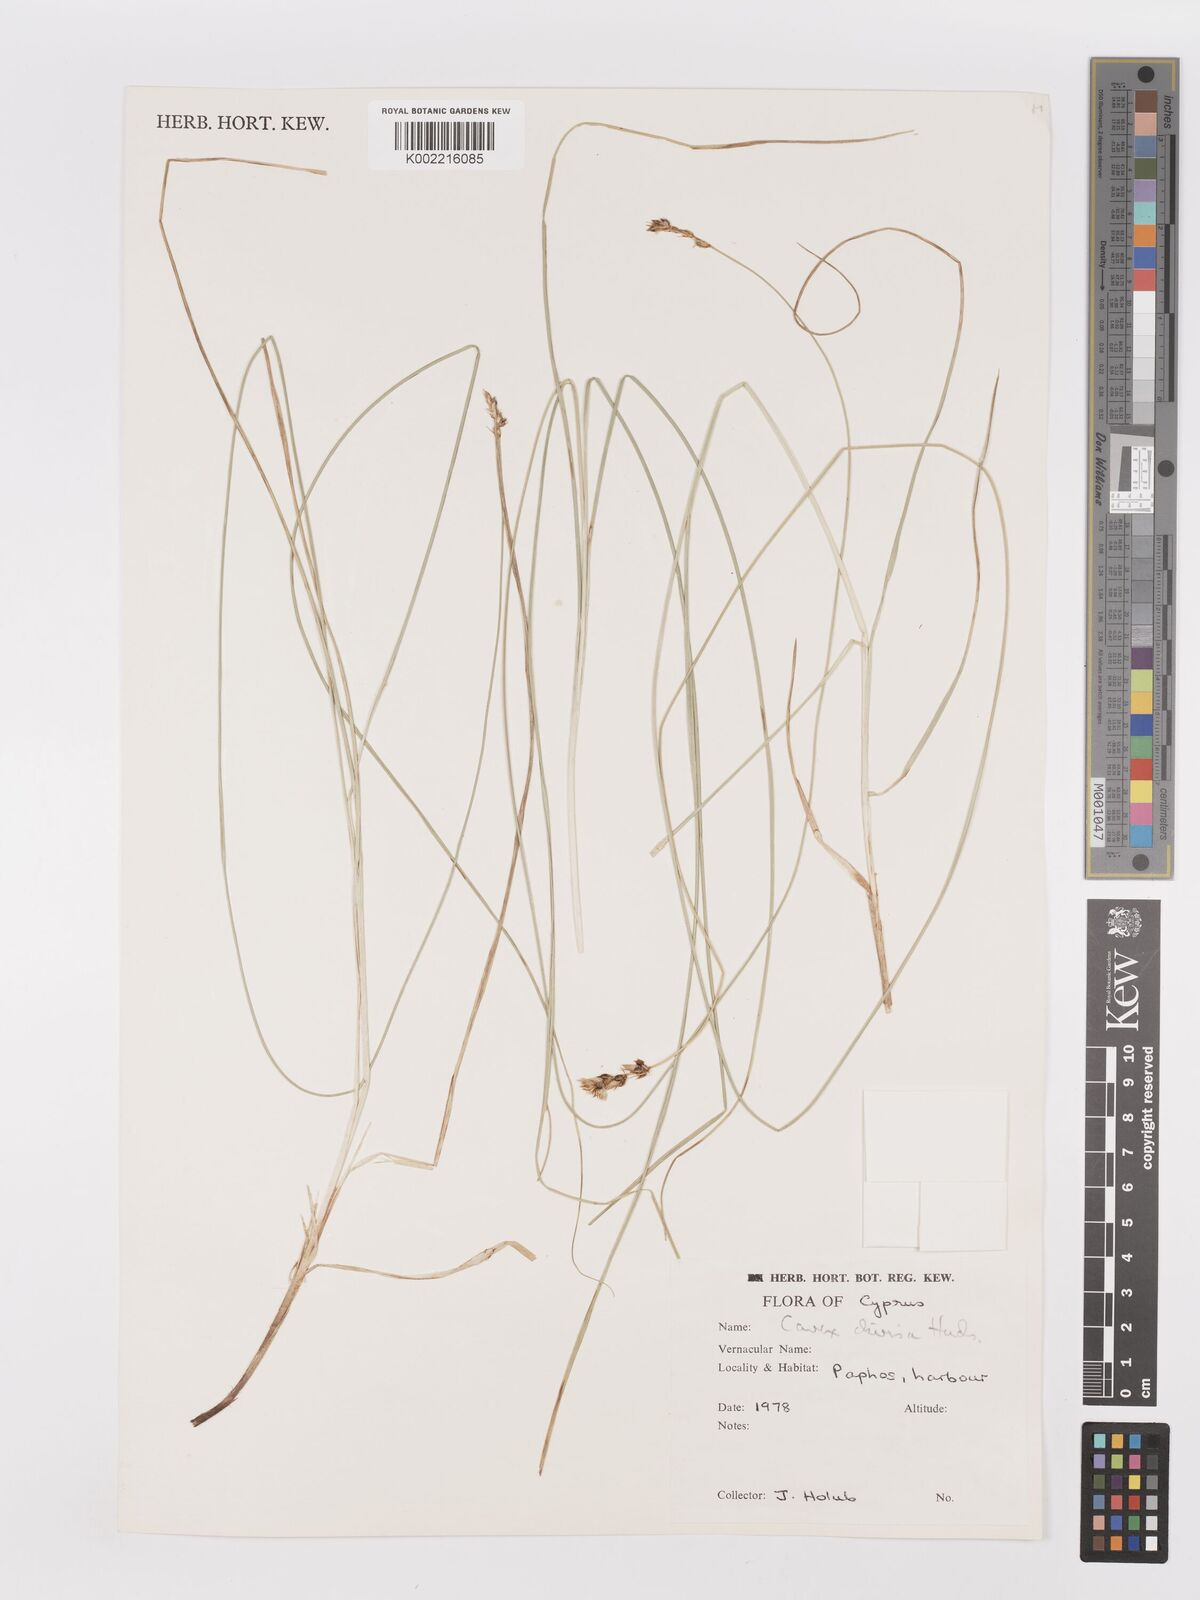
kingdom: Plantae
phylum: Tracheophyta
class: Liliopsida
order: Poales
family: Cyperaceae
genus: Carex
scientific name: Carex divisa
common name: Divided sedge
